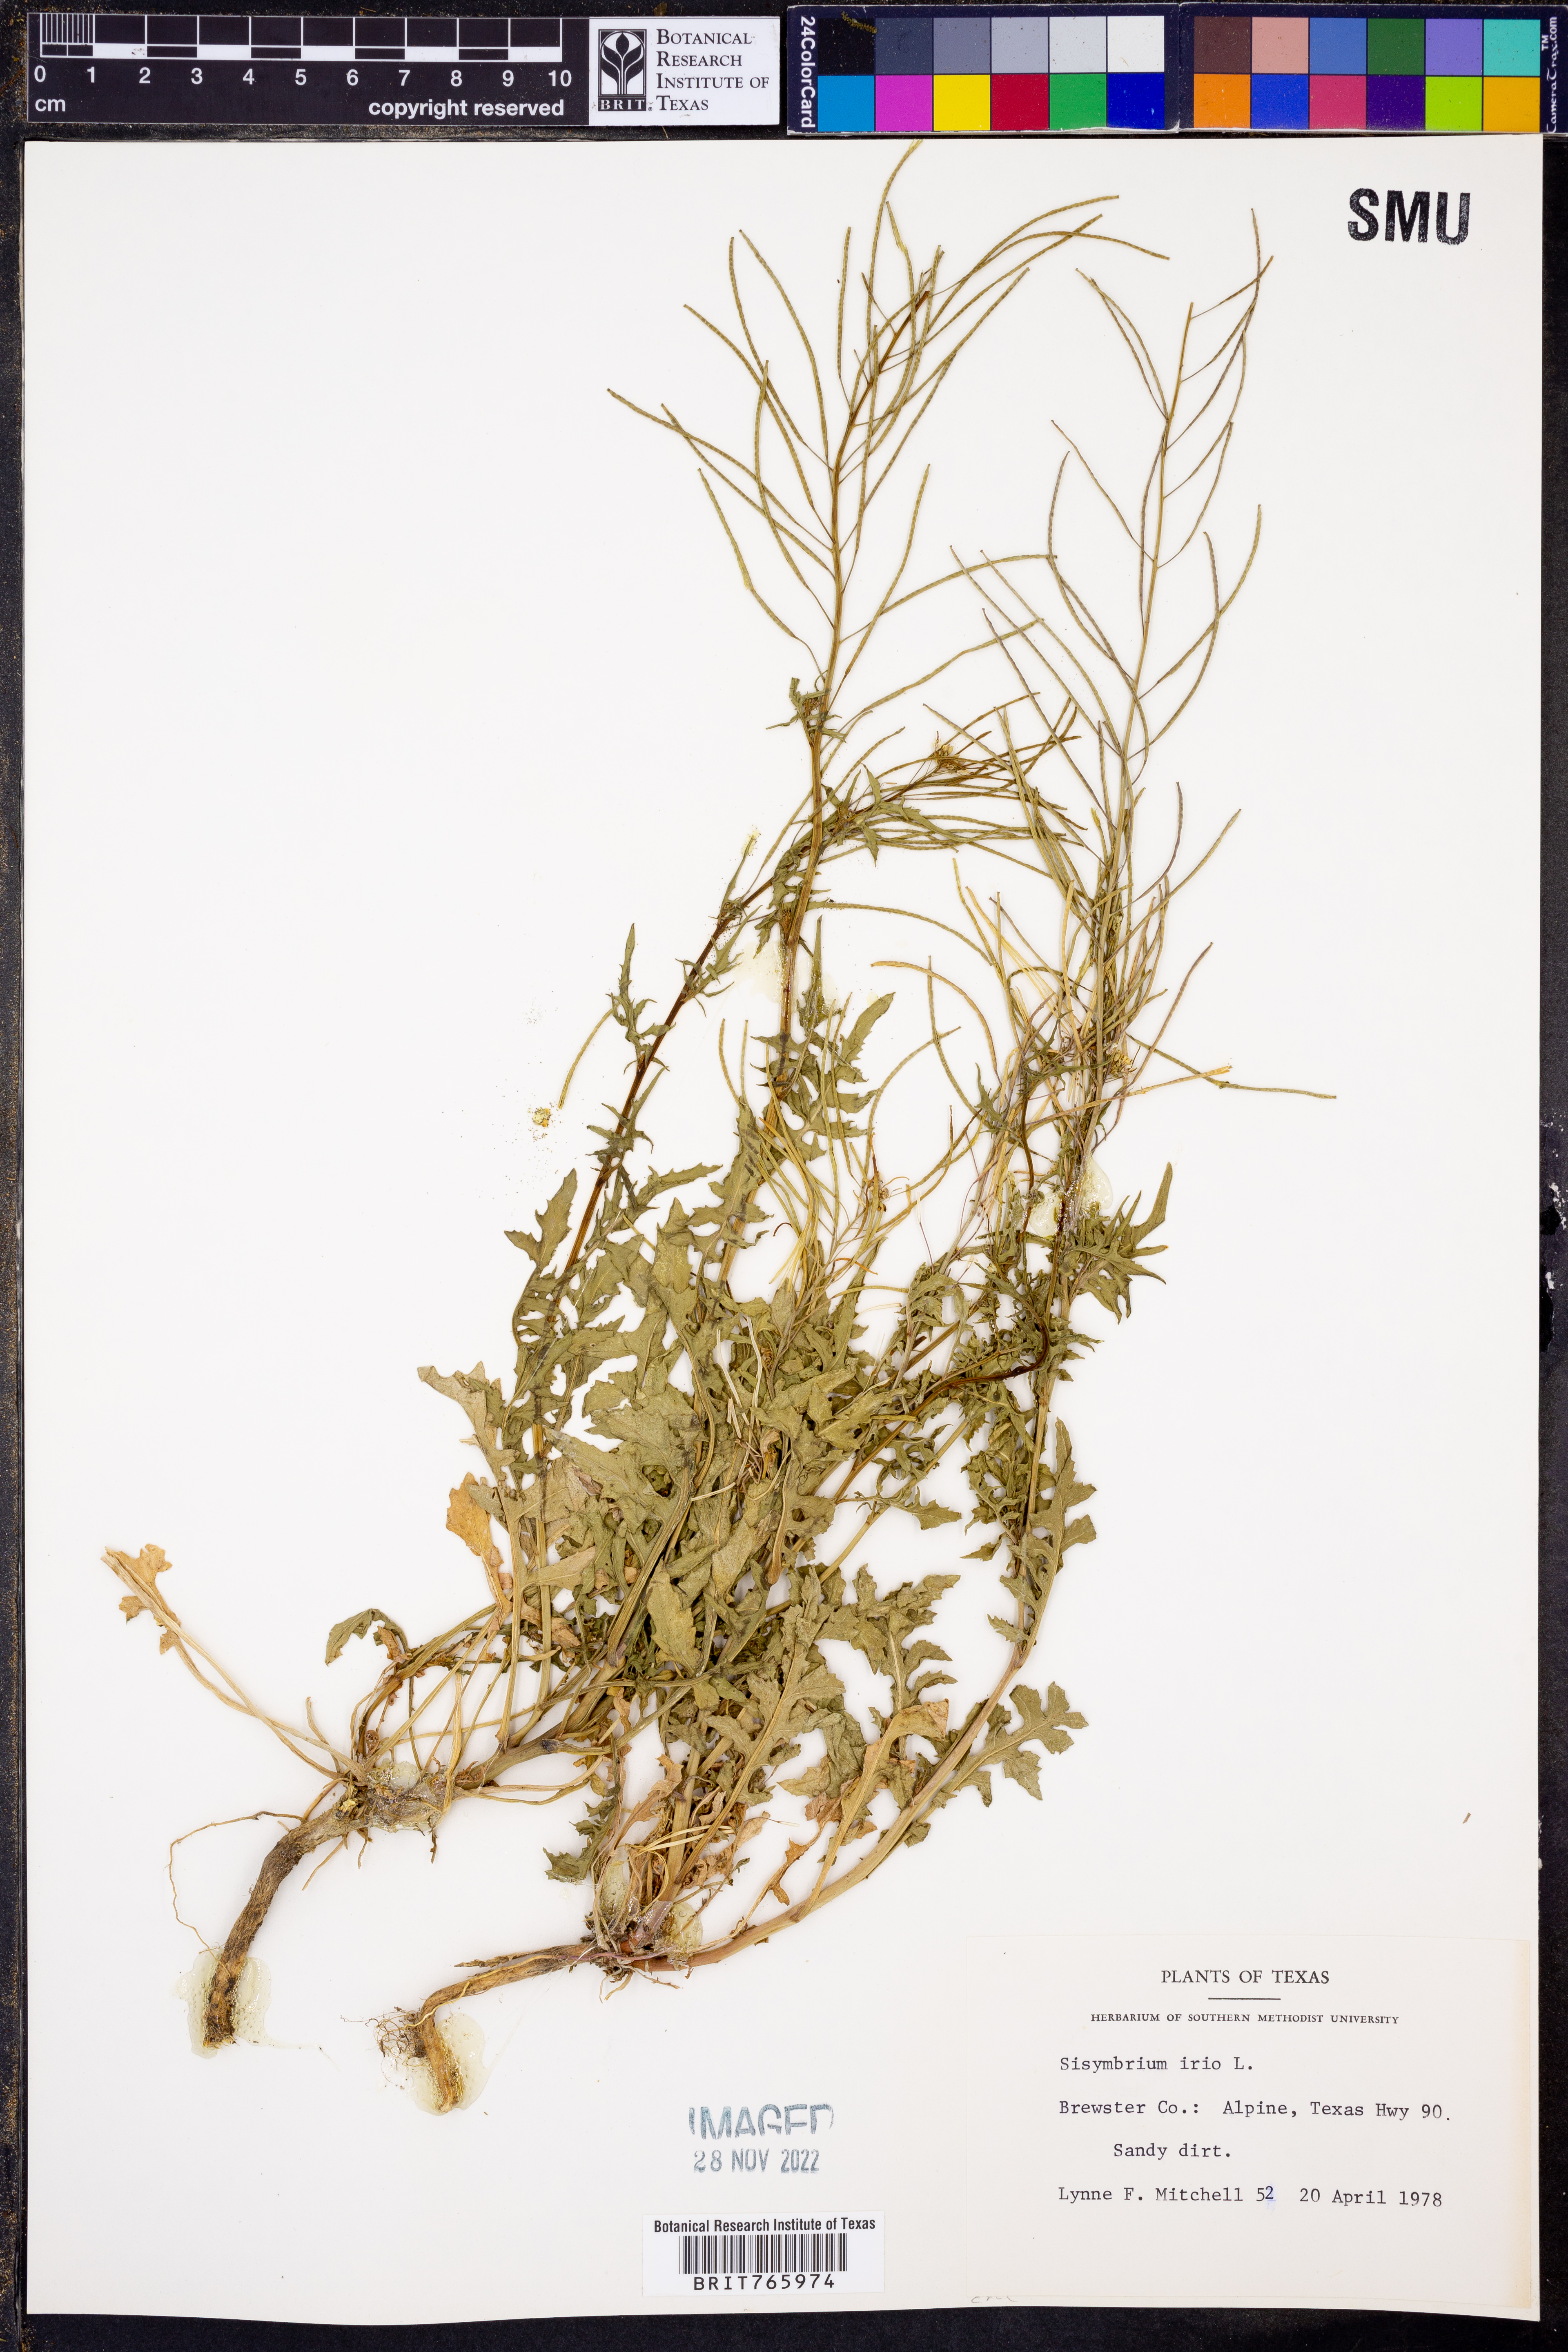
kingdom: Plantae
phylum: Tracheophyta
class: Magnoliopsida
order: Brassicales
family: Brassicaceae
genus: Sisymbrium
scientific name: Sisymbrium irio
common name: London rocket
